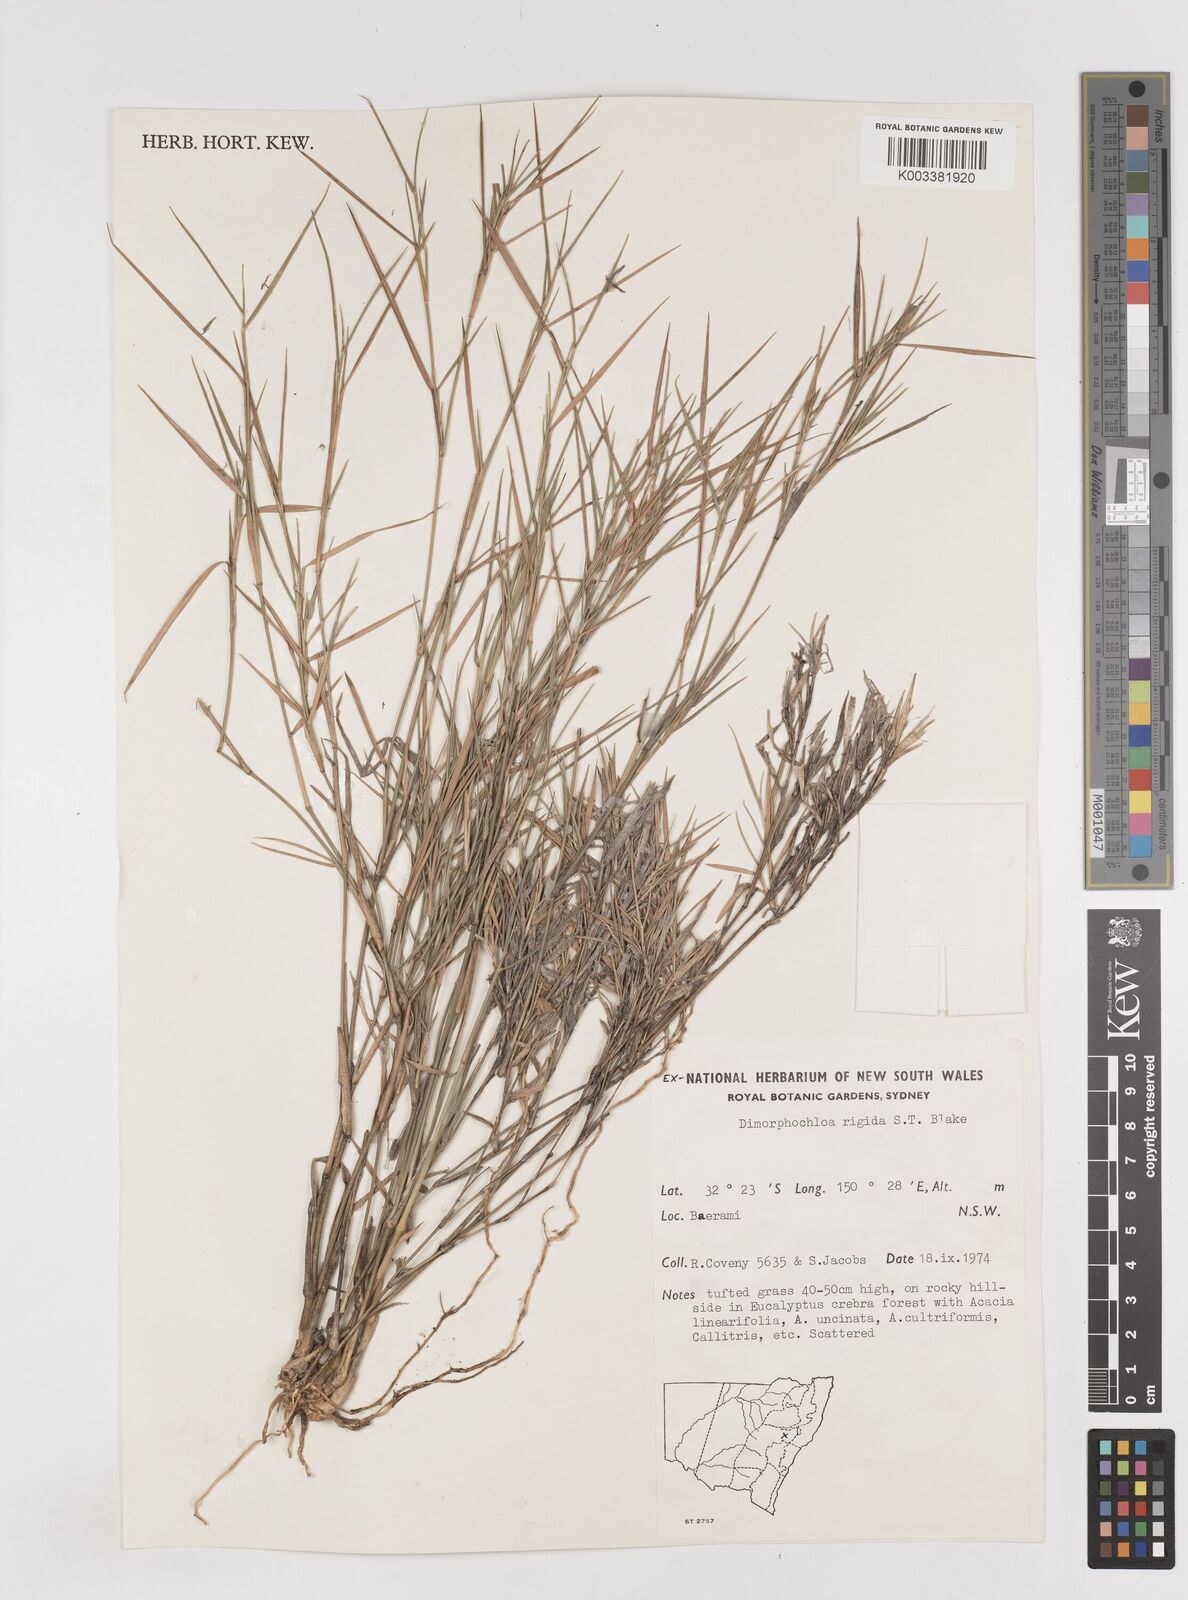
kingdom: Plantae
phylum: Tracheophyta
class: Liliopsida
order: Poales
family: Poaceae
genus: Dimorphochloa
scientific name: Dimorphochloa rigida
